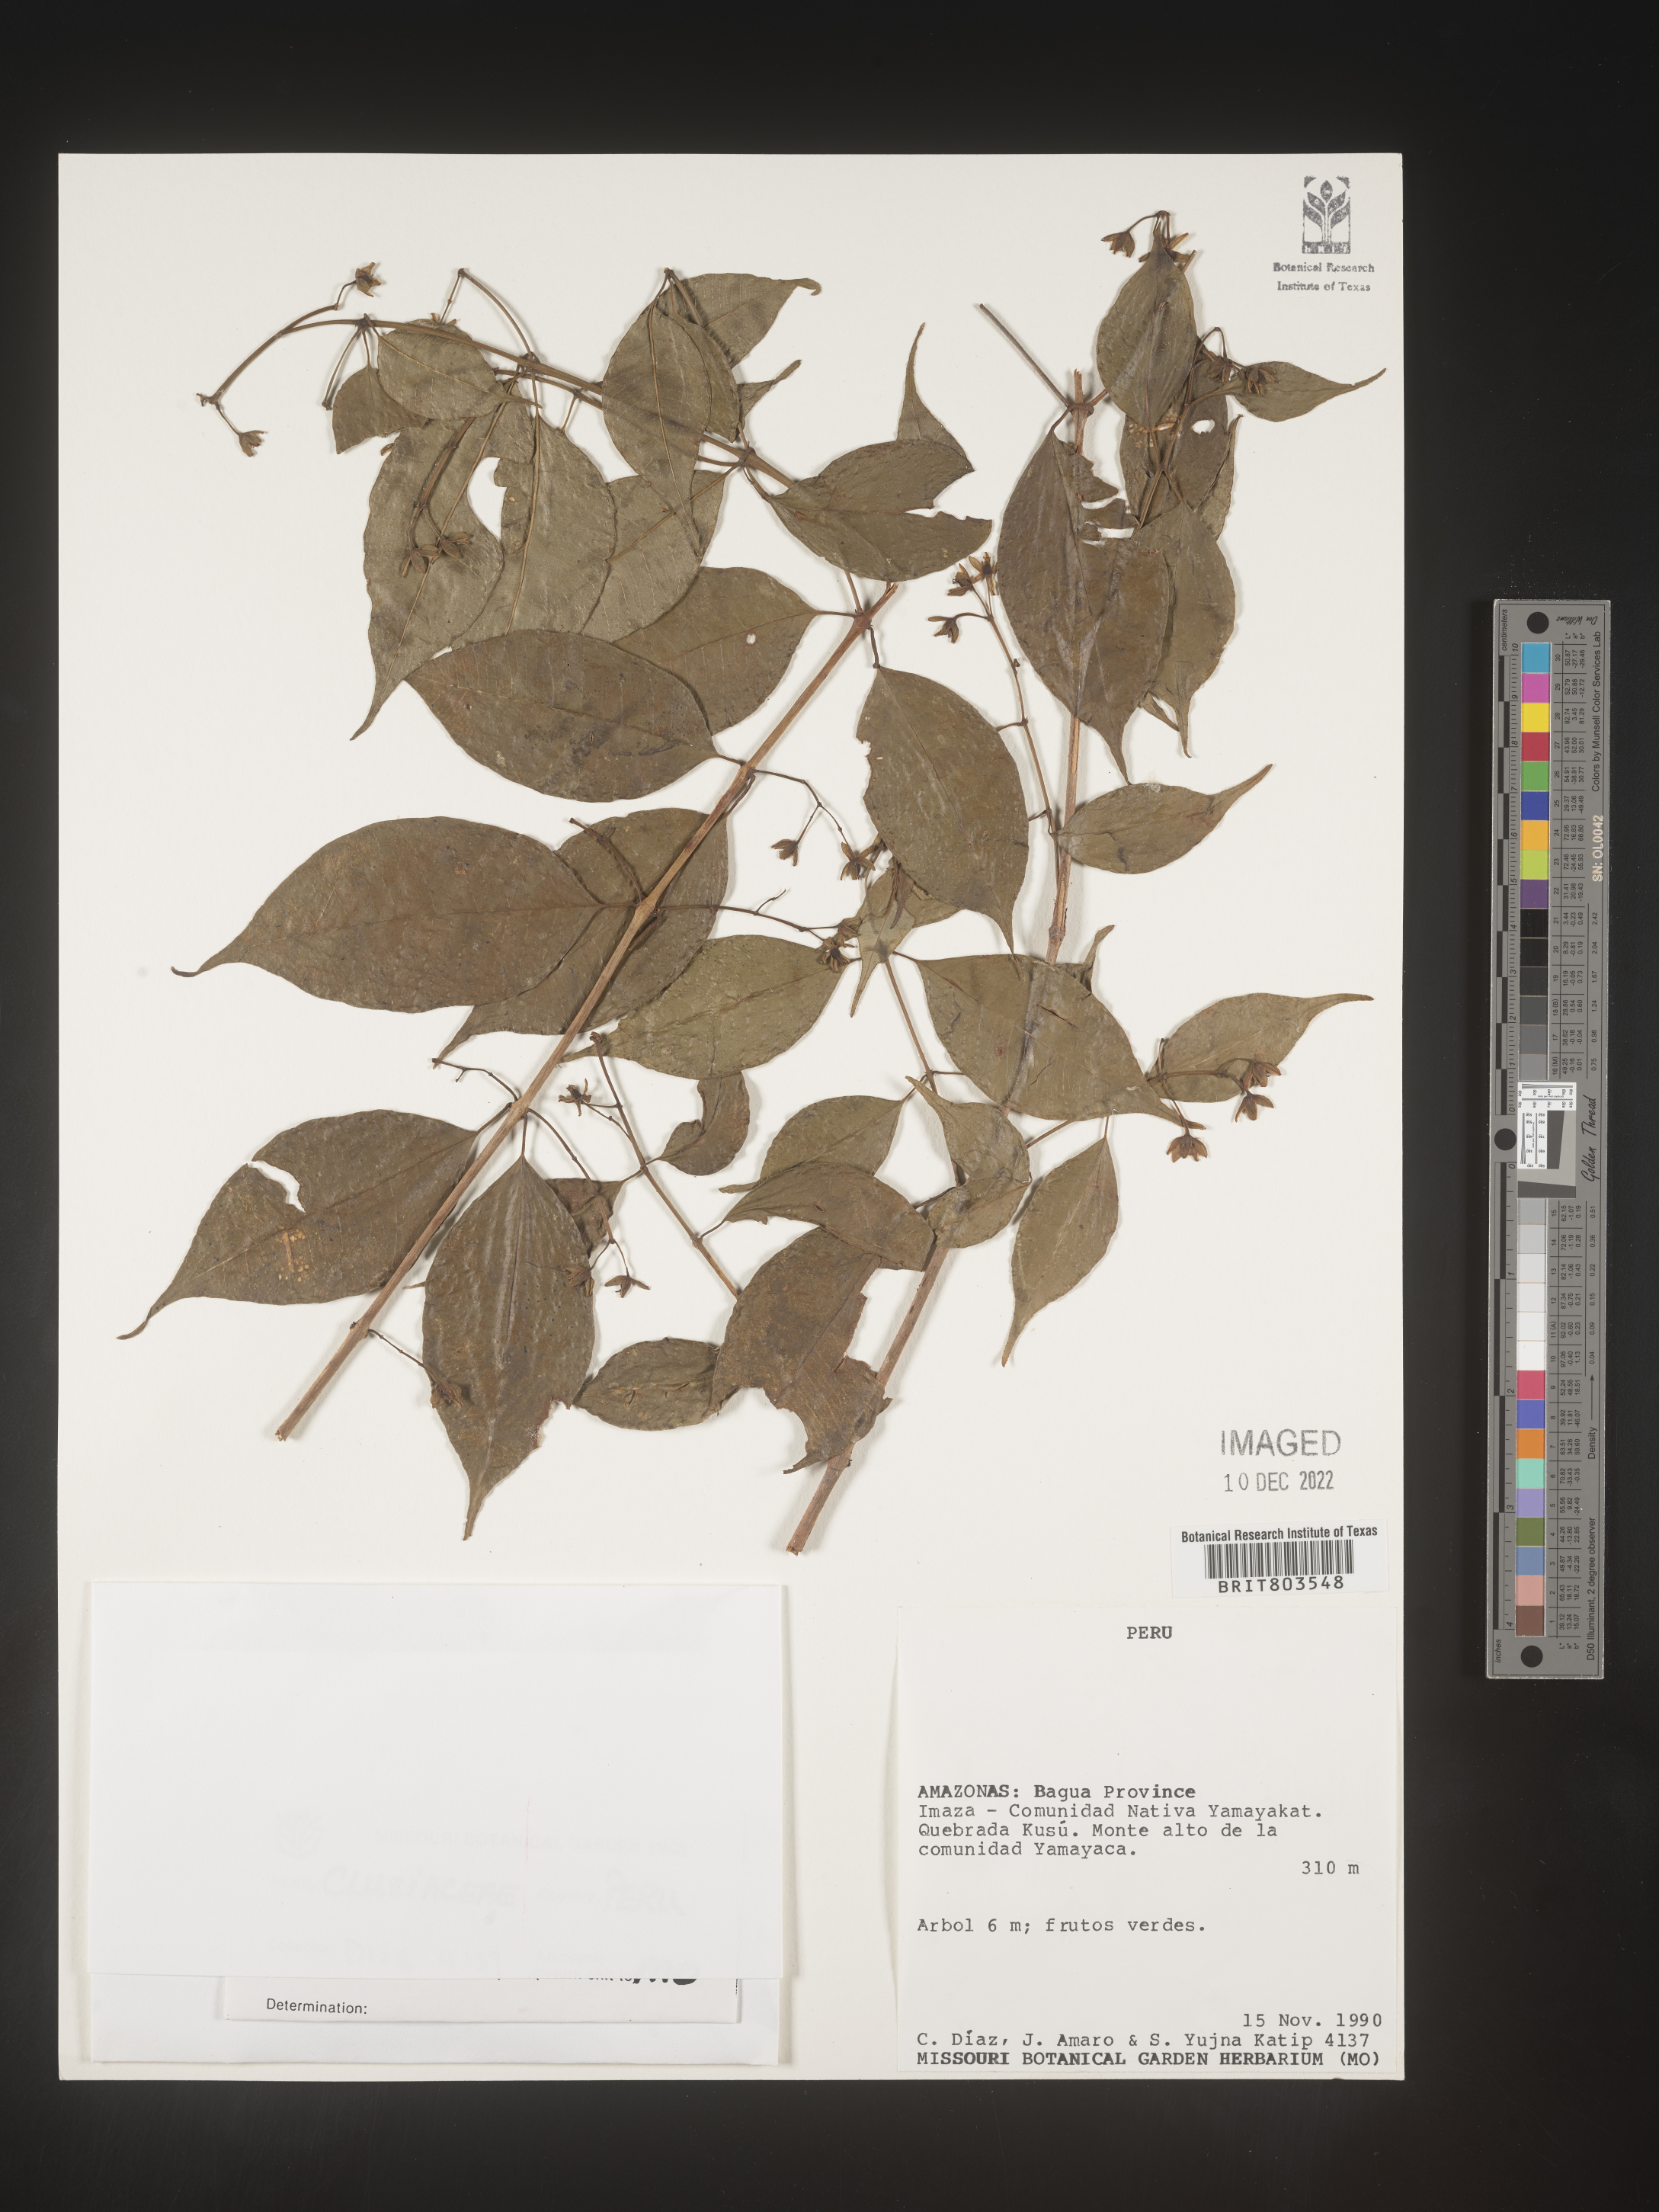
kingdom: Plantae
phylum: Tracheophyta
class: Magnoliopsida
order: Malpighiales
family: Clusiaceae
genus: Tovomita
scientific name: Tovomita
